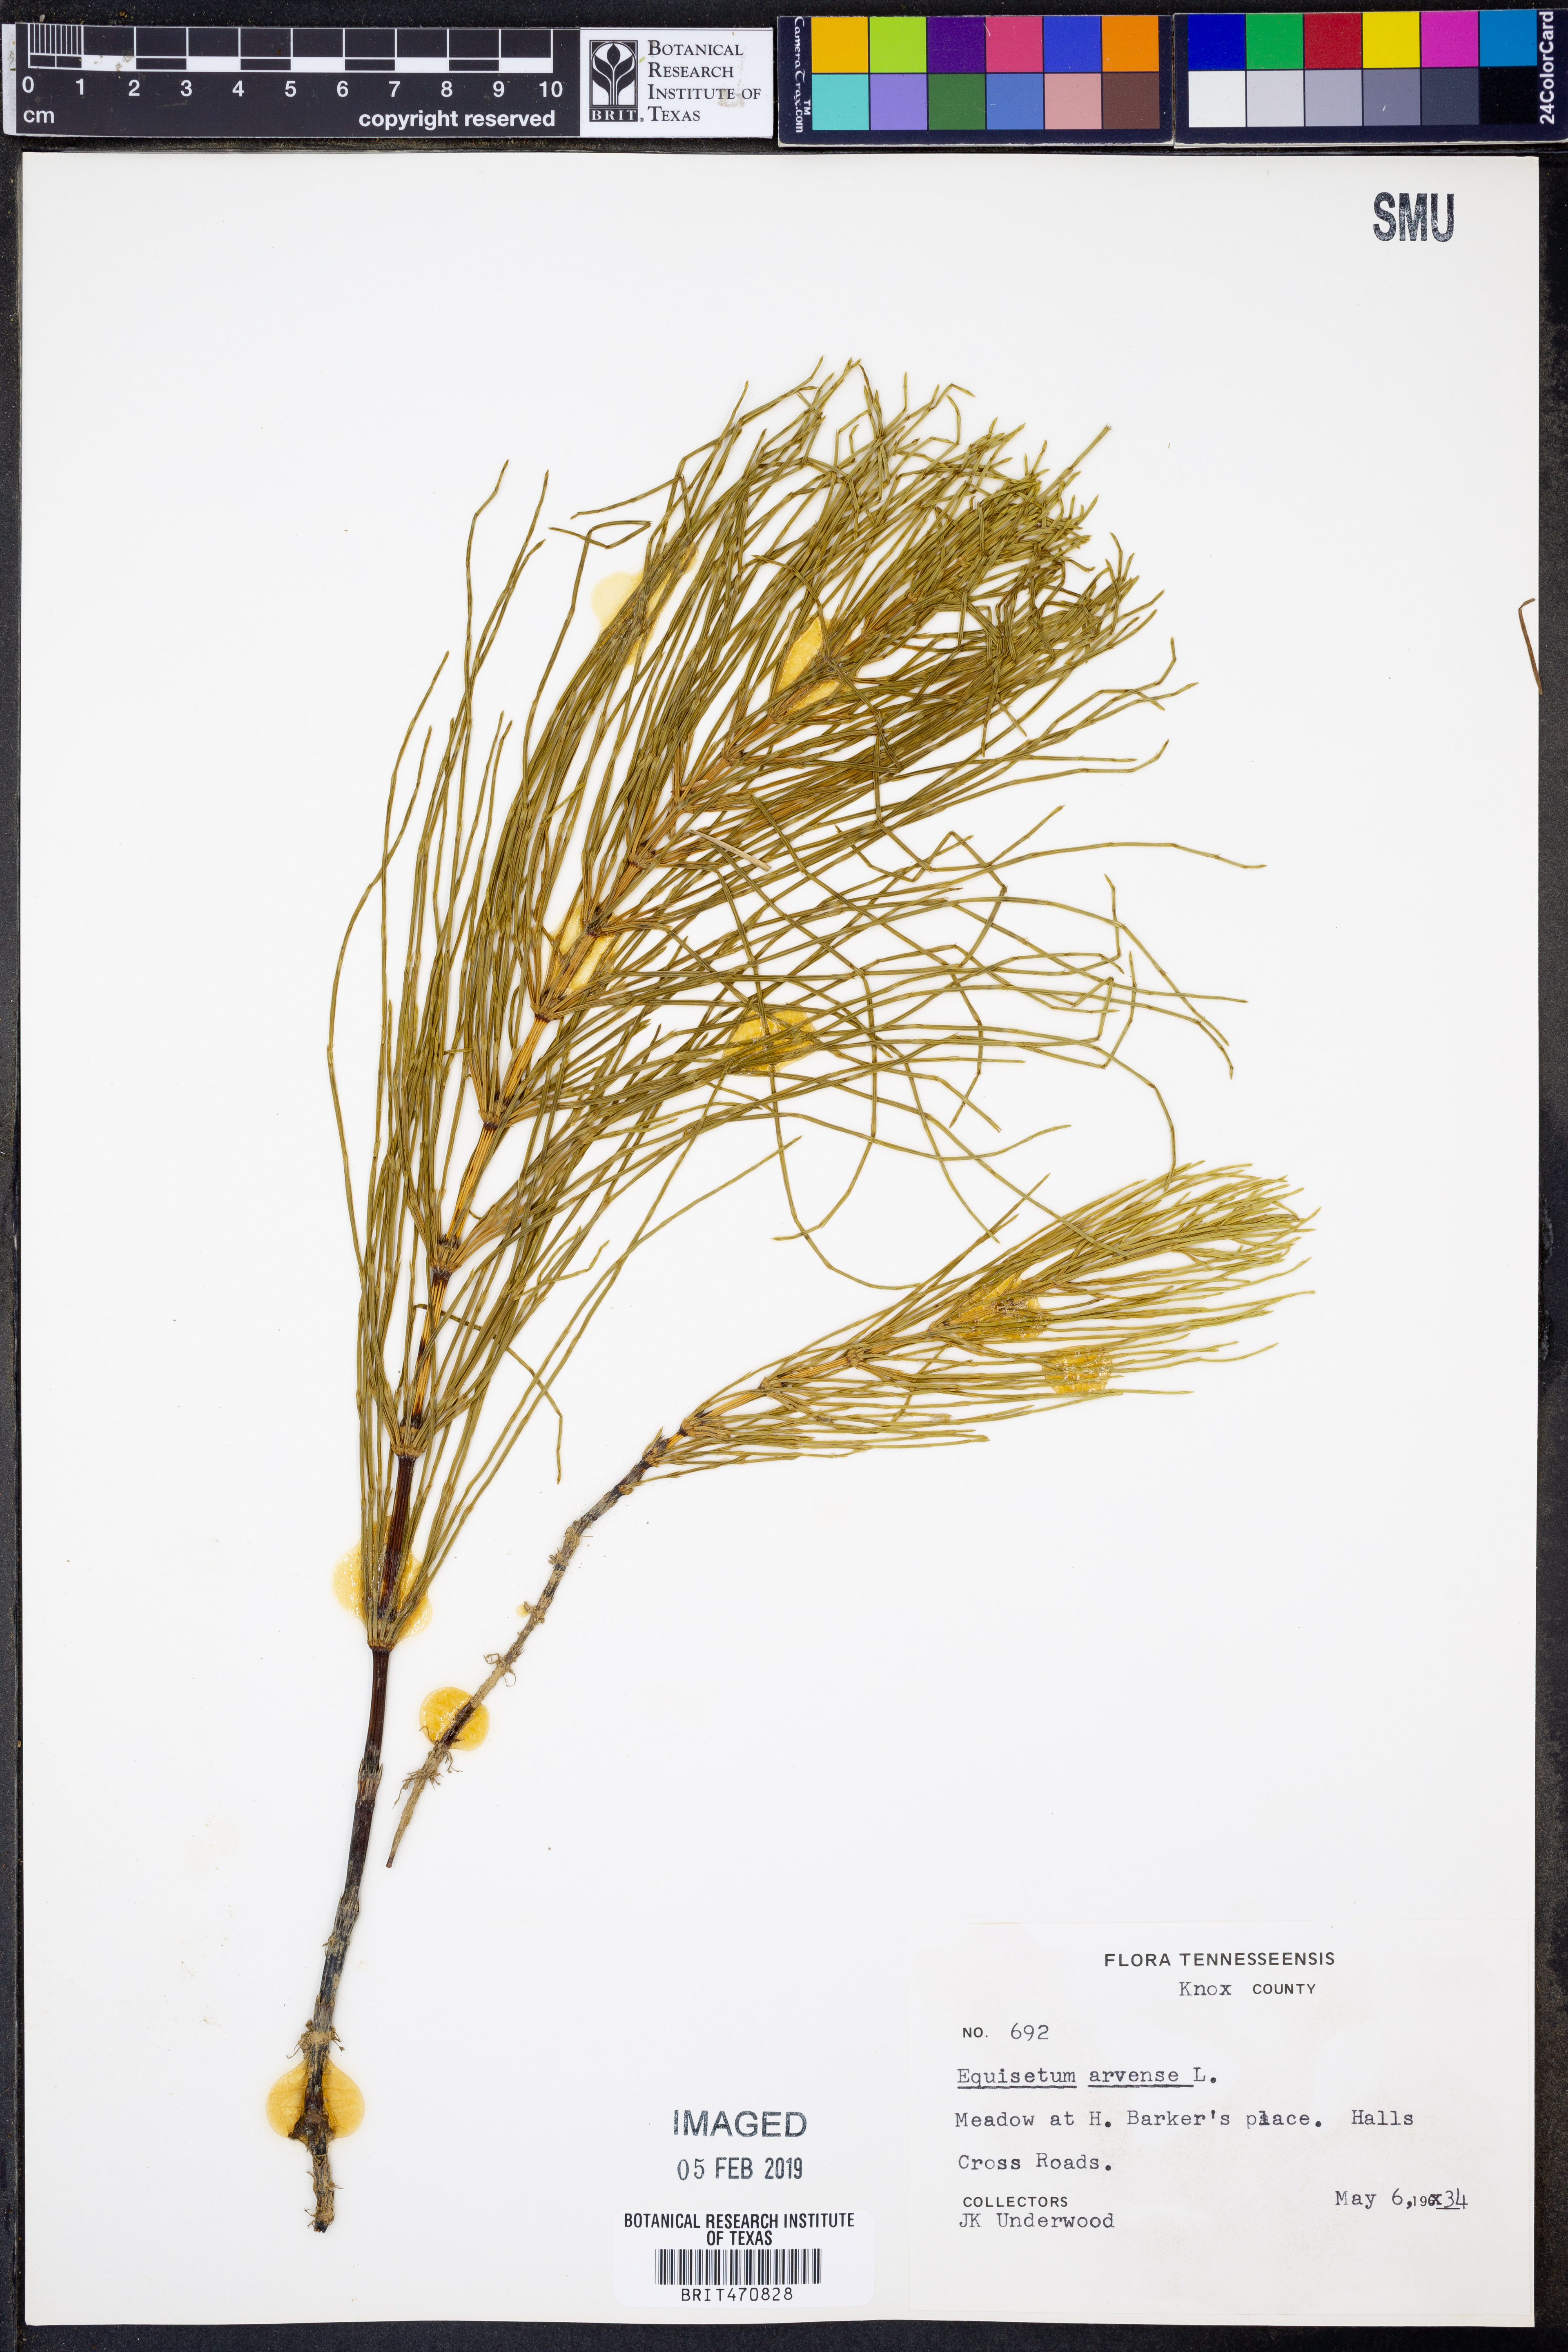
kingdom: Plantae
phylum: Tracheophyta
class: Polypodiopsida
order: Equisetales
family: Equisetaceae
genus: Equisetum
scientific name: Equisetum arvense
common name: Field horsetail
